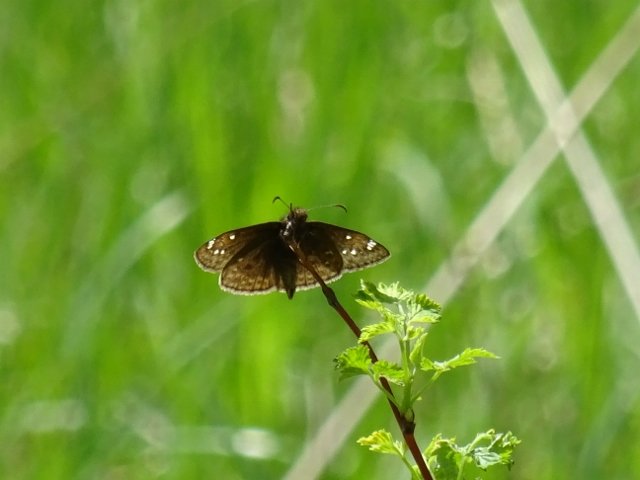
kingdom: Animalia
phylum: Arthropoda
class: Insecta
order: Lepidoptera
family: Hesperiidae
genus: Gesta
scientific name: Gesta
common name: Juvenal's Duskywing
